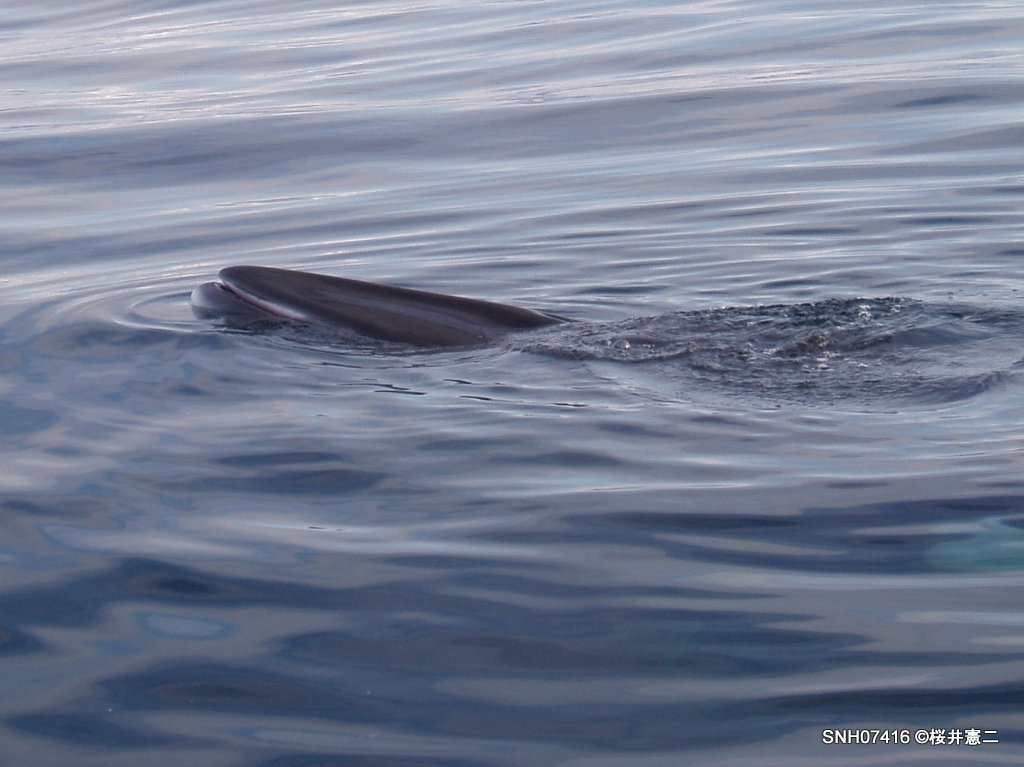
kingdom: Animalia
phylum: Chordata
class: Mammalia
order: Cetacea
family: Balaenopteridae
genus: Balaenoptera
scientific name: Balaenoptera acutorostrata
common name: Minke whale
